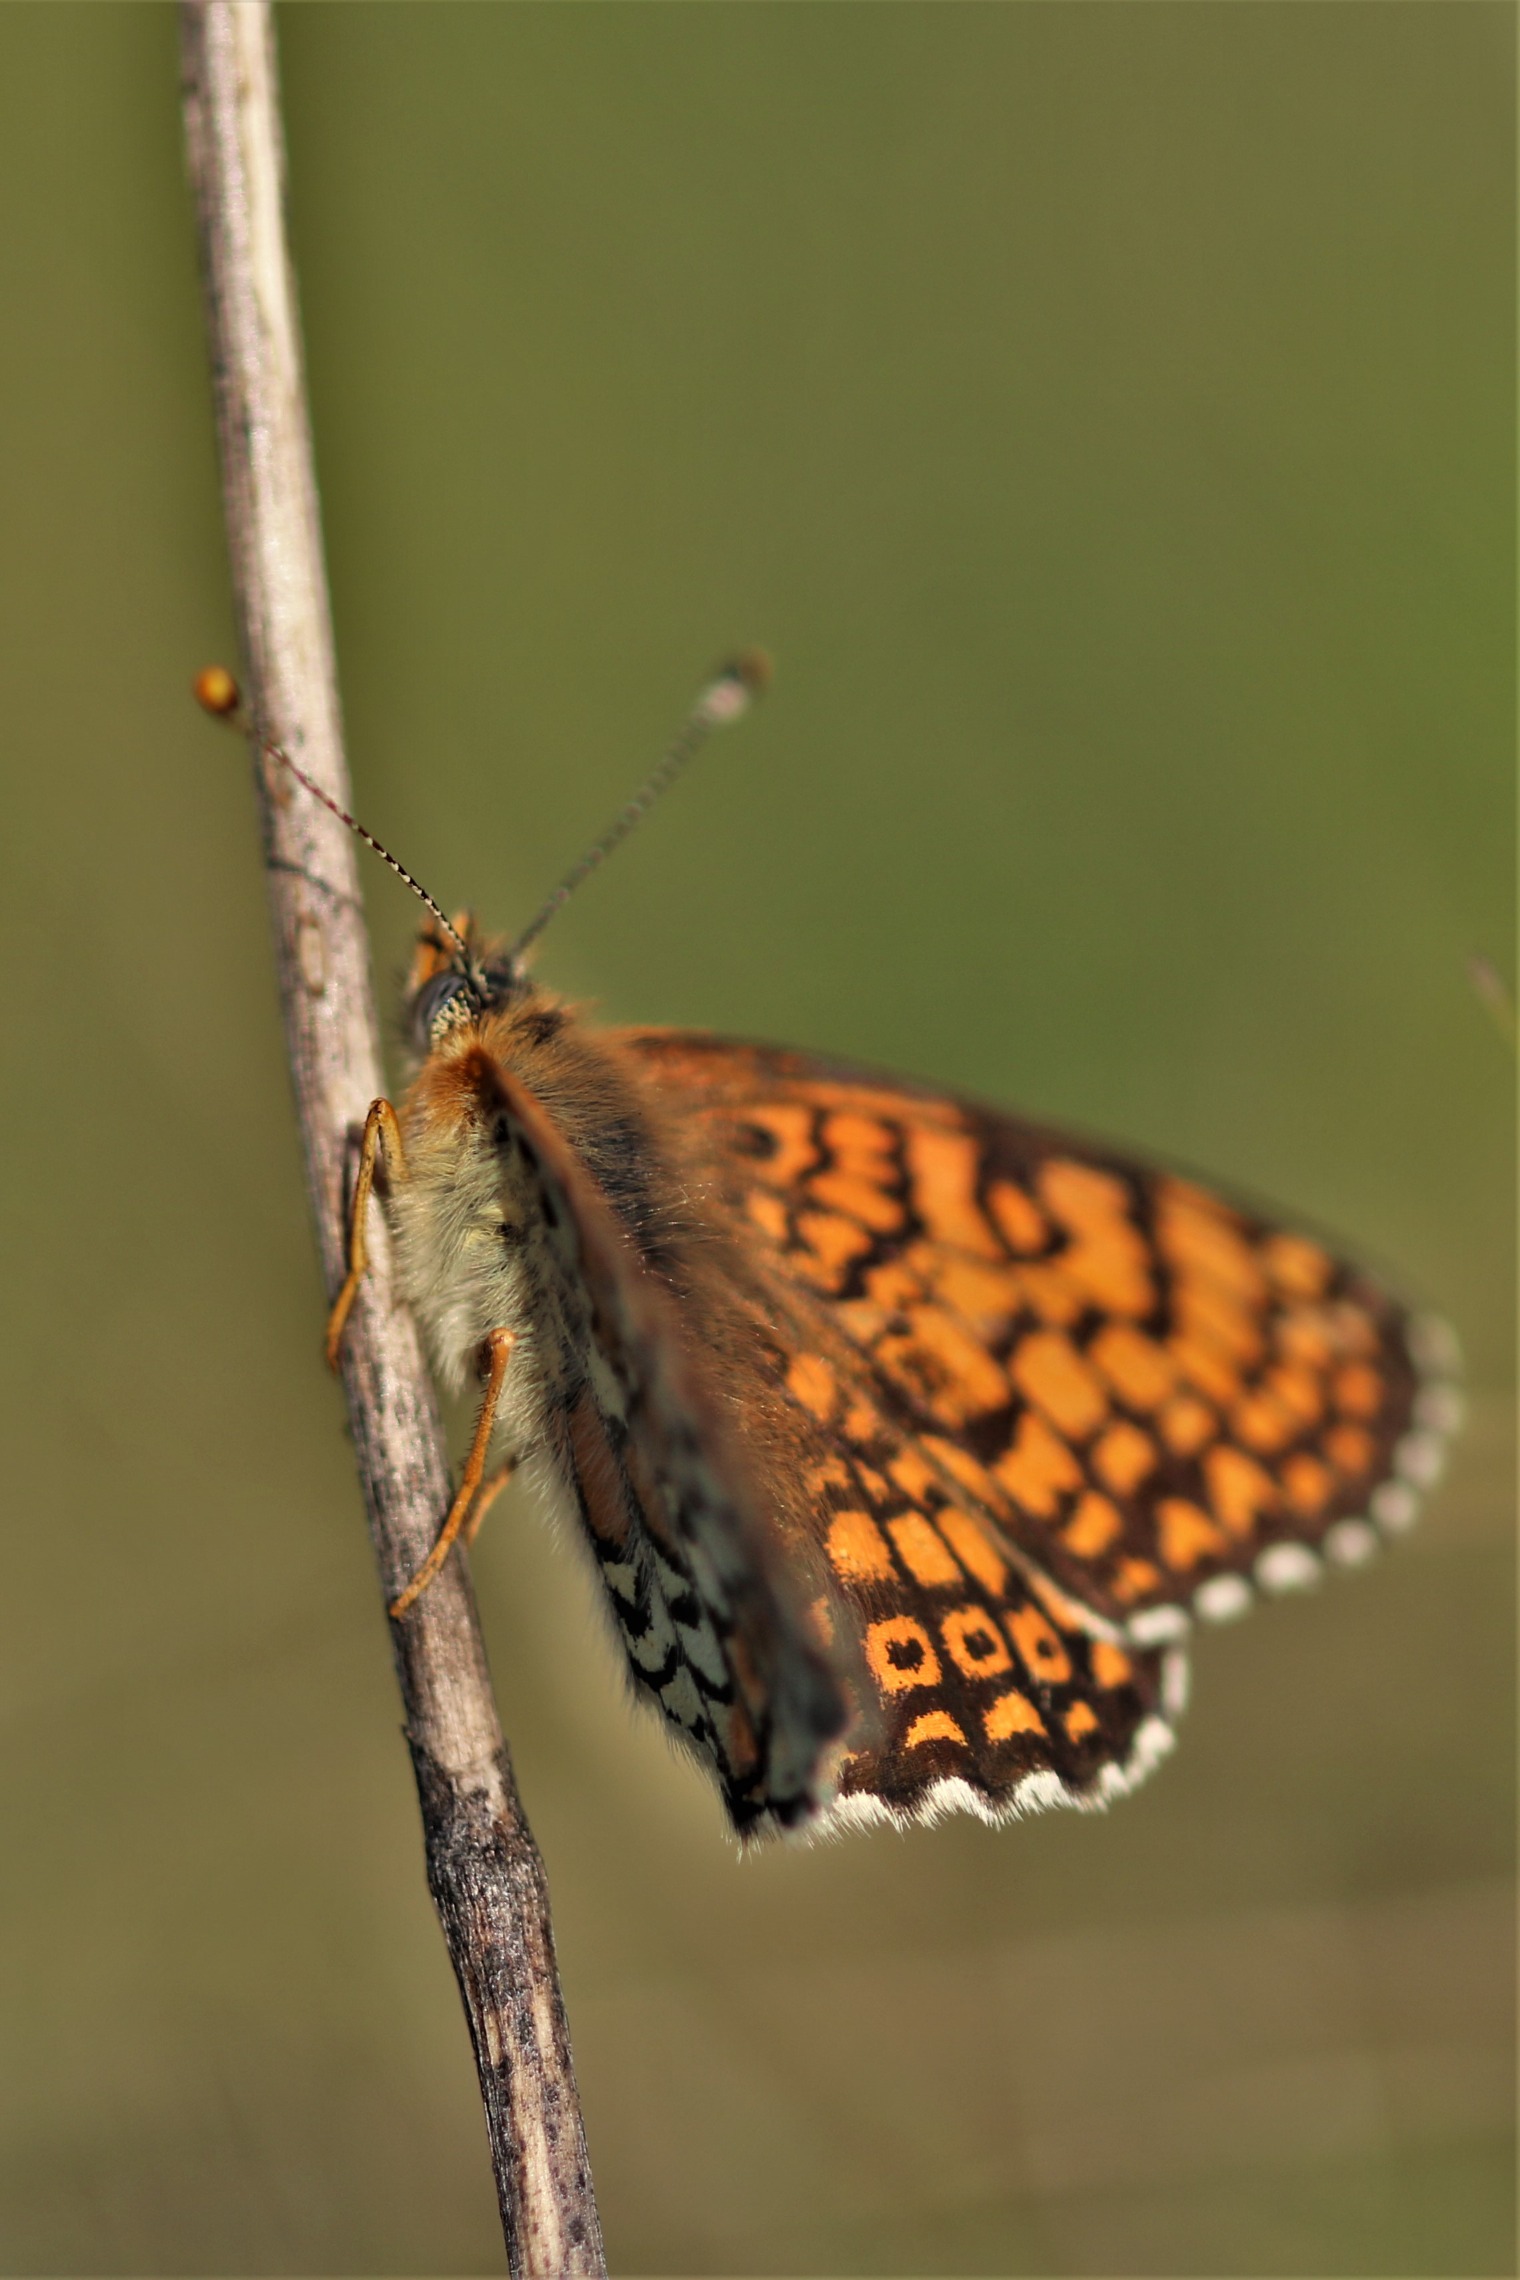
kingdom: Animalia
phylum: Arthropoda
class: Insecta
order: Lepidoptera
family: Nymphalidae
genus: Melitaea
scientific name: Melitaea cinxia
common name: Okkergul pletvinge
